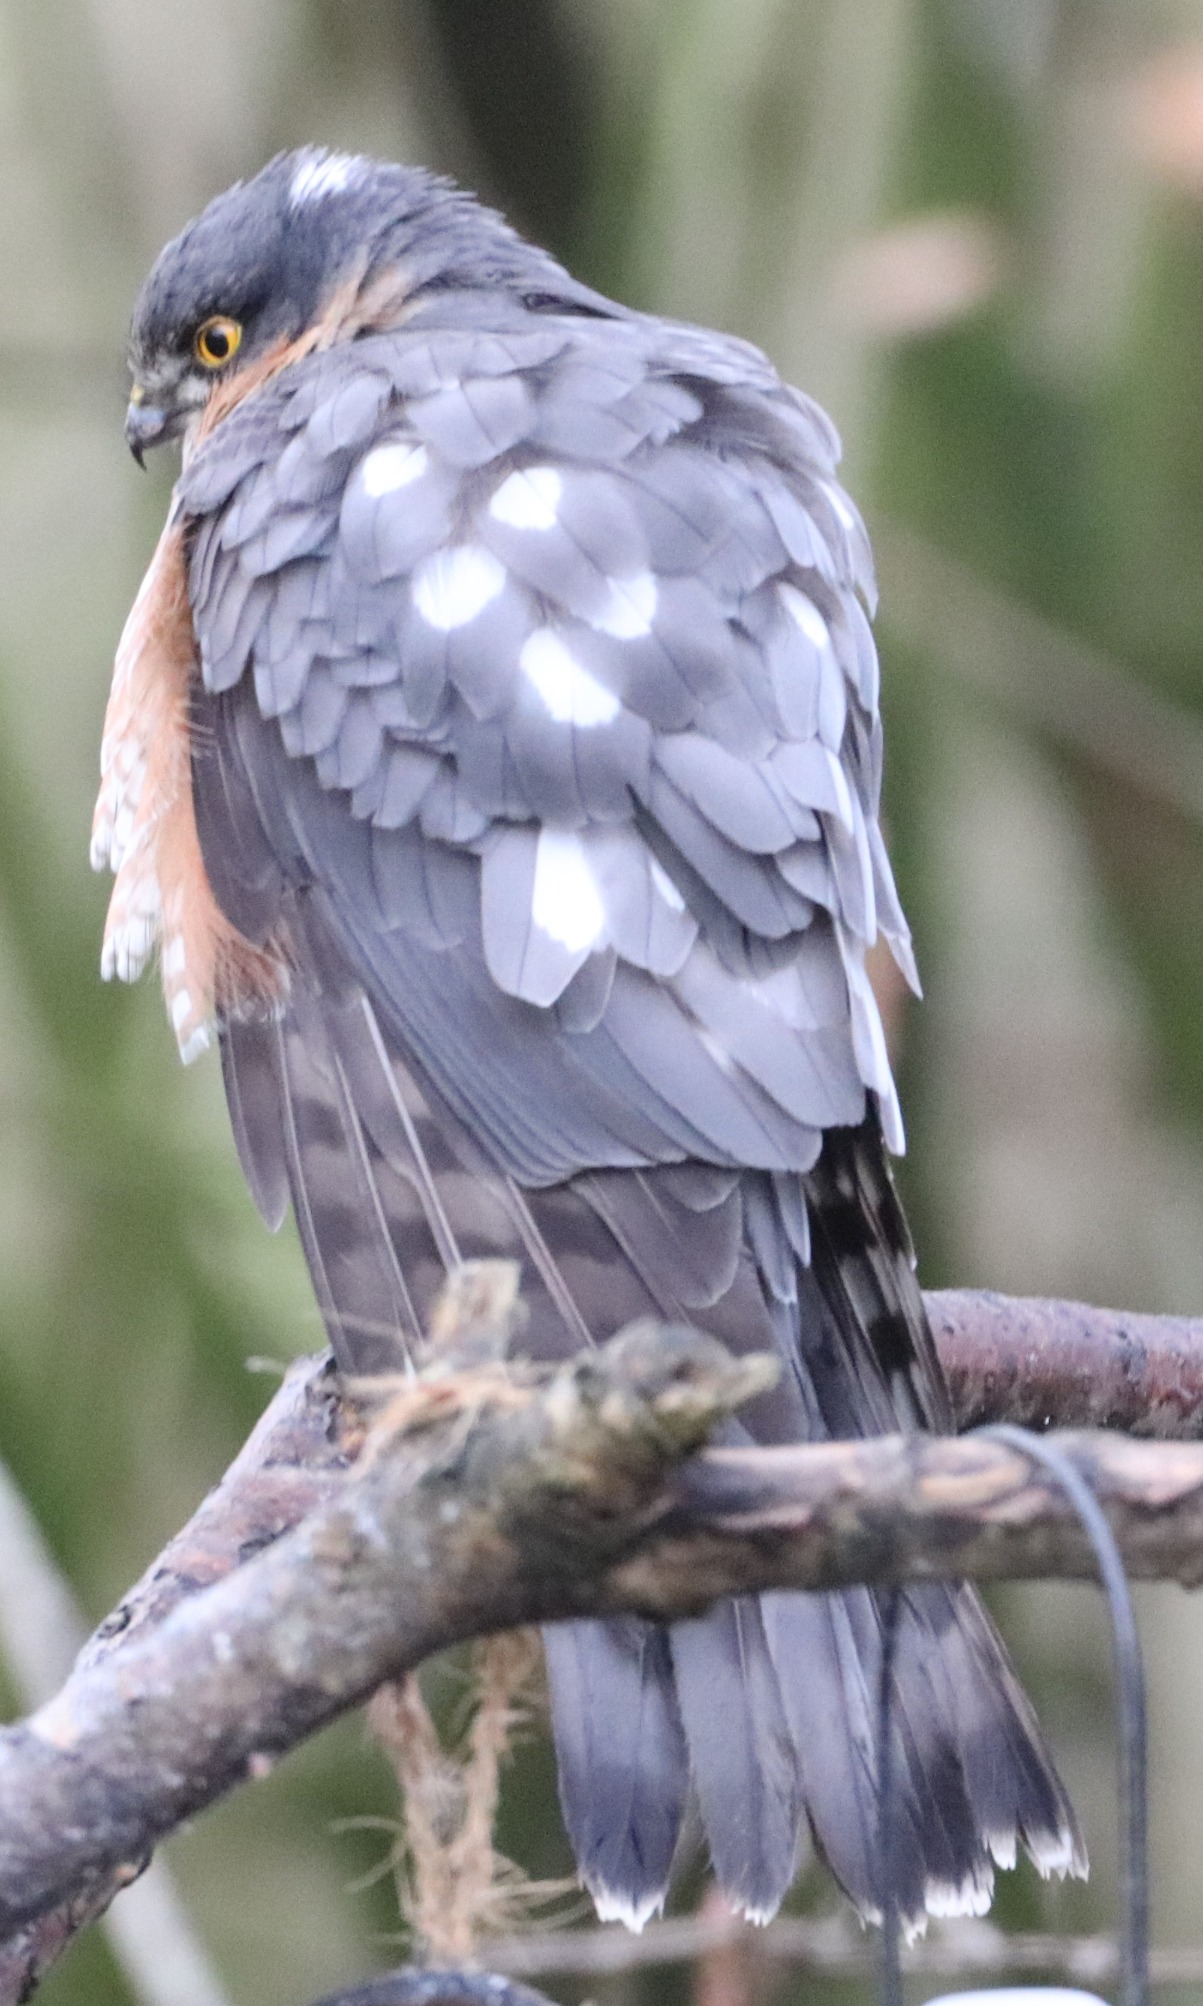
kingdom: Animalia
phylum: Chordata
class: Aves
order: Accipitriformes
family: Accipitridae
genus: Accipiter
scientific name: Accipiter nisus
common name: Spurvehøg
